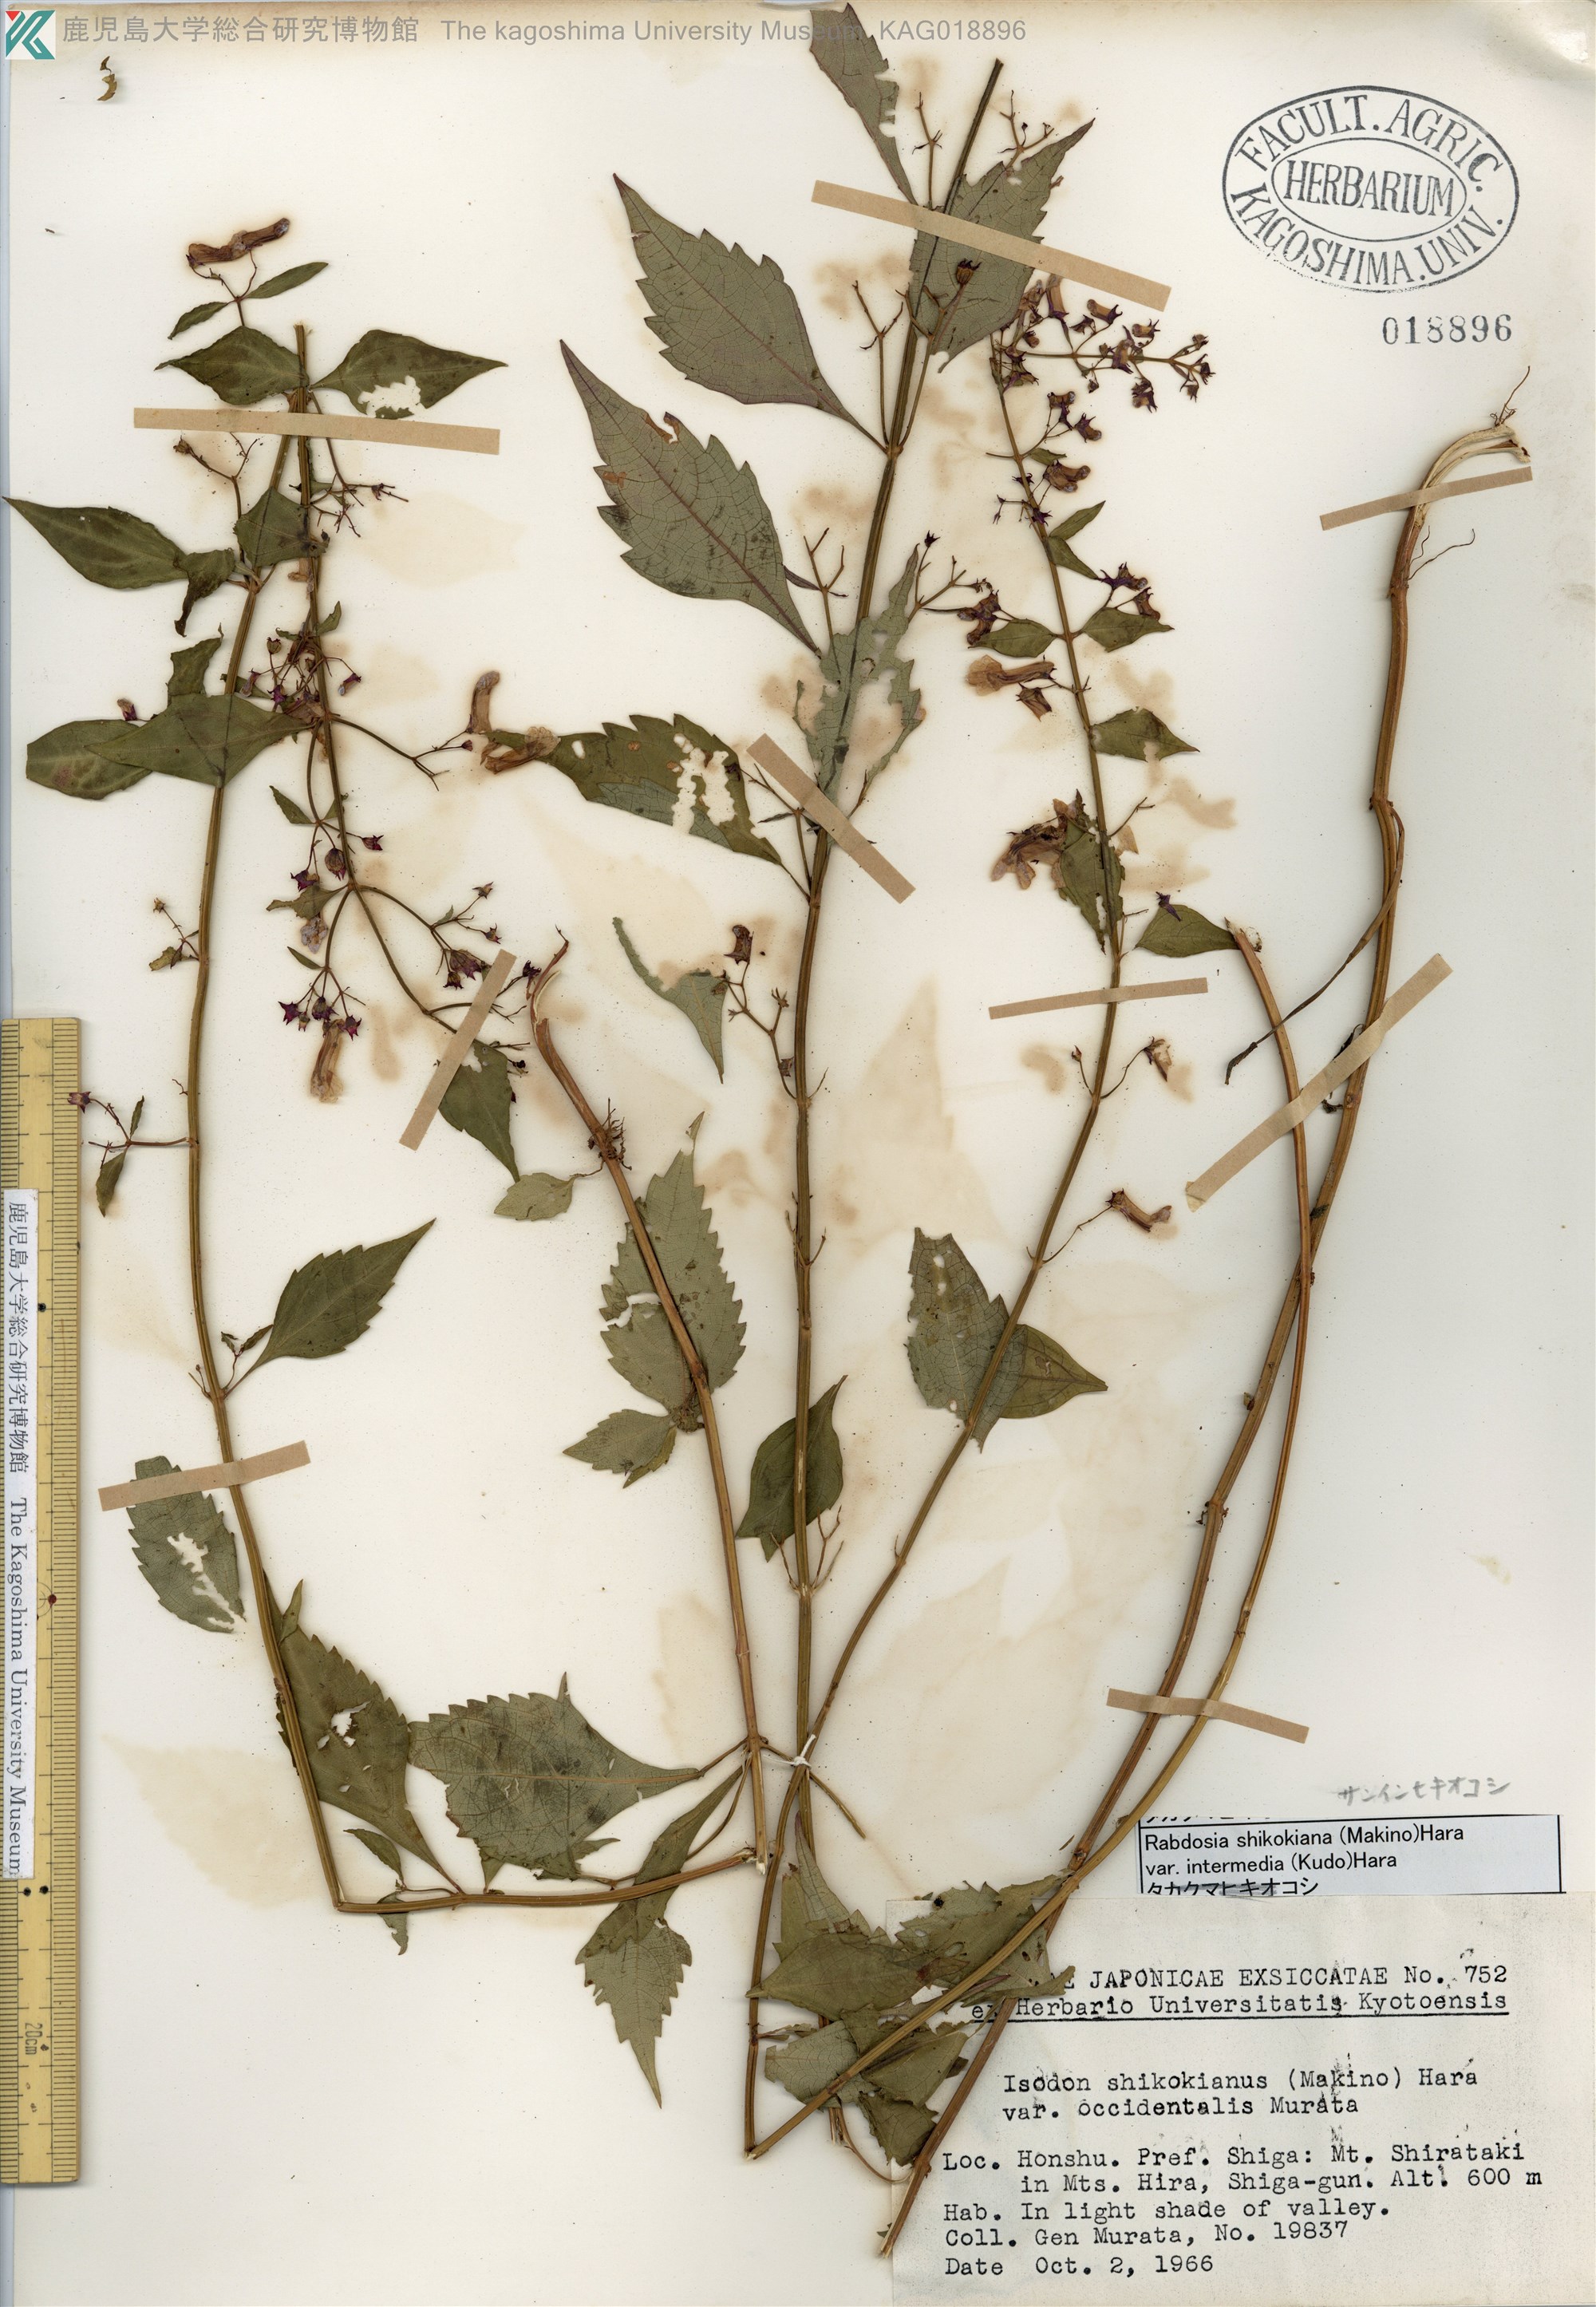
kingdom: Plantae
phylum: Tracheophyta
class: Magnoliopsida
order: Lamiales
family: Lamiaceae
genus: Isodon
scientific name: Isodon shikokianus
